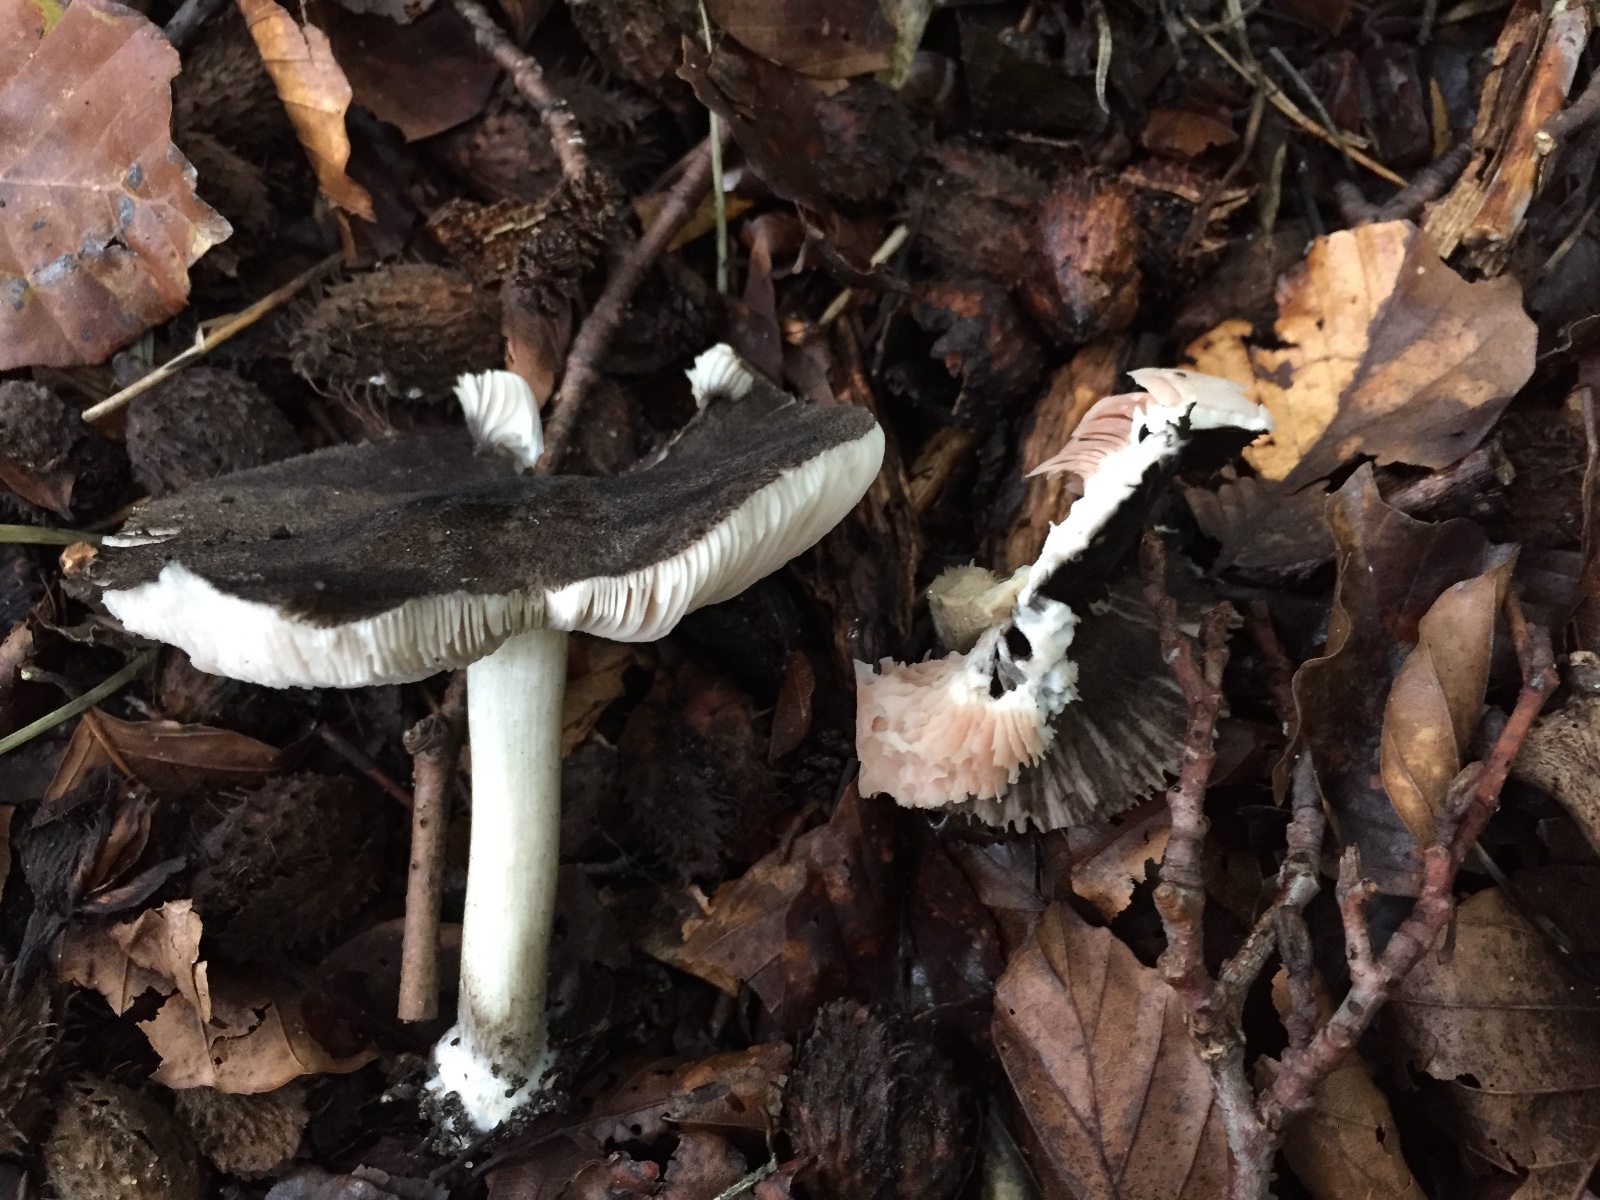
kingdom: Fungi
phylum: Basidiomycota
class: Agaricomycetes
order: Agaricales
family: Pluteaceae
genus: Pluteus
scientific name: Pluteus ephebeus
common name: Sooty shield
